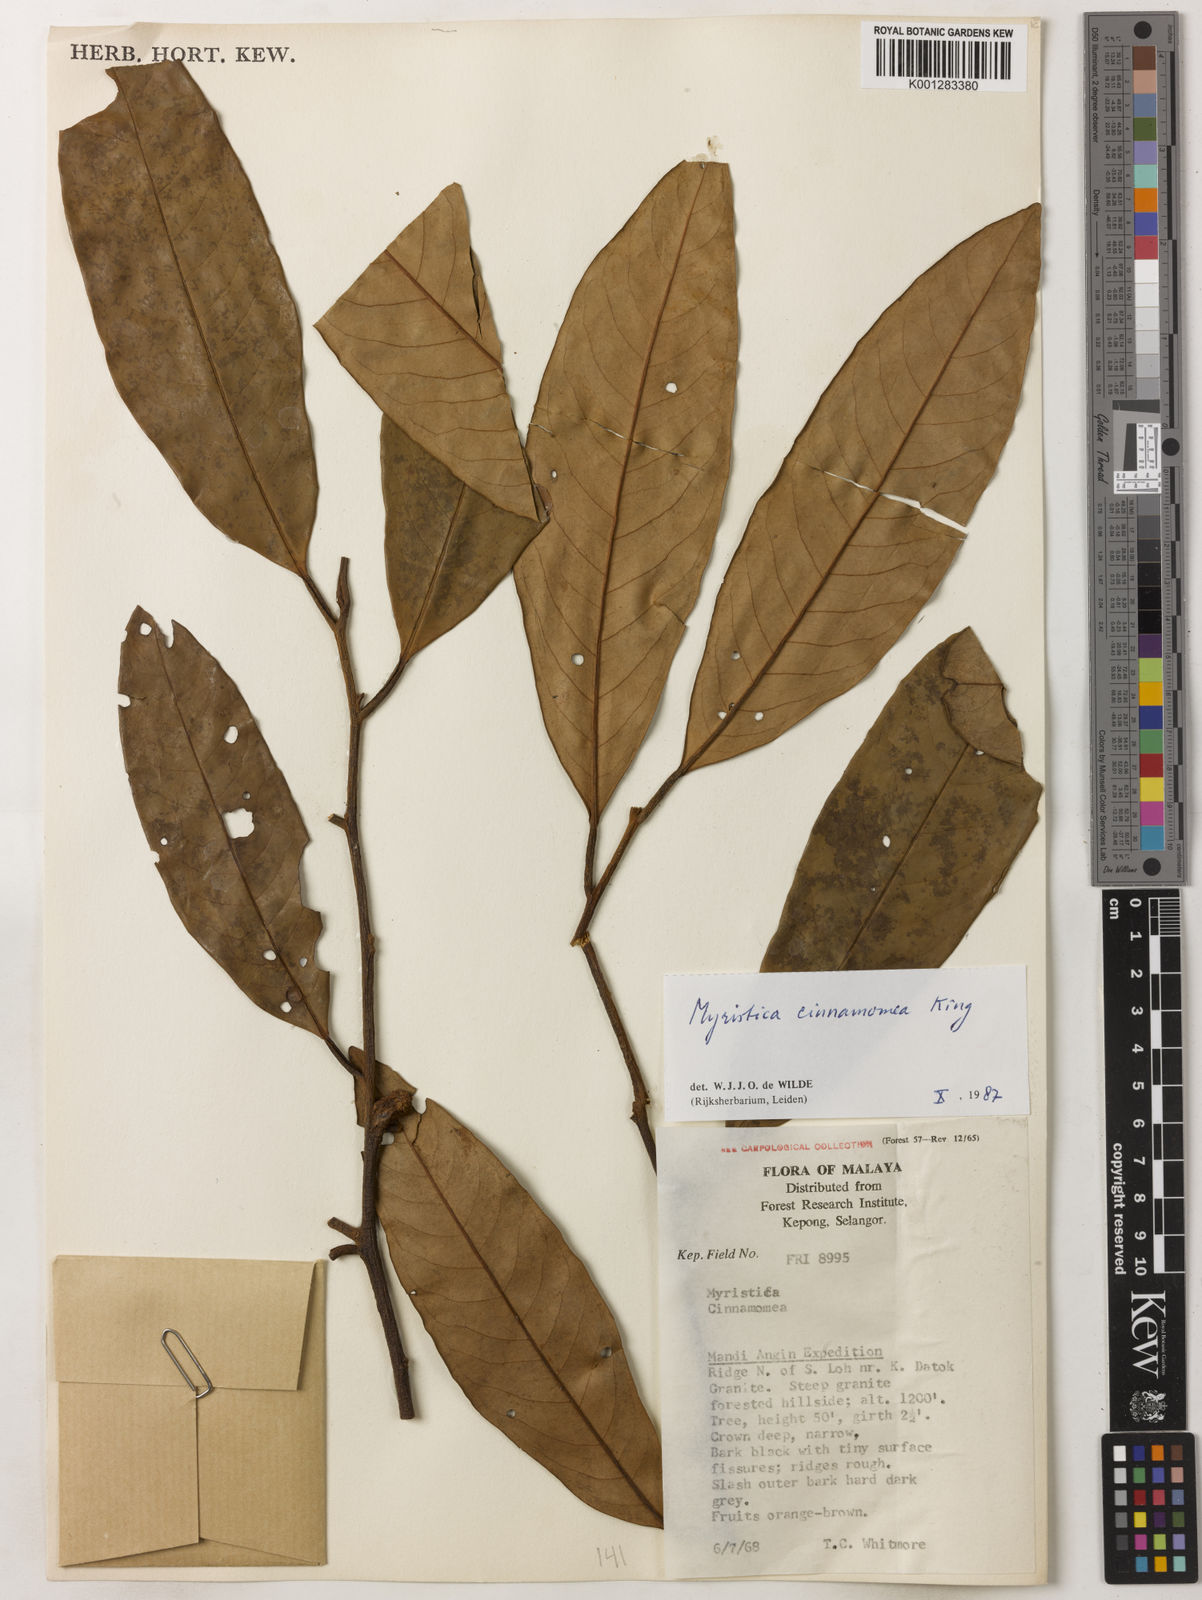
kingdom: Plantae
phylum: Tracheophyta
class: Magnoliopsida
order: Magnoliales
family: Myristicaceae
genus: Myristica
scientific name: Myristica cinnamomea
